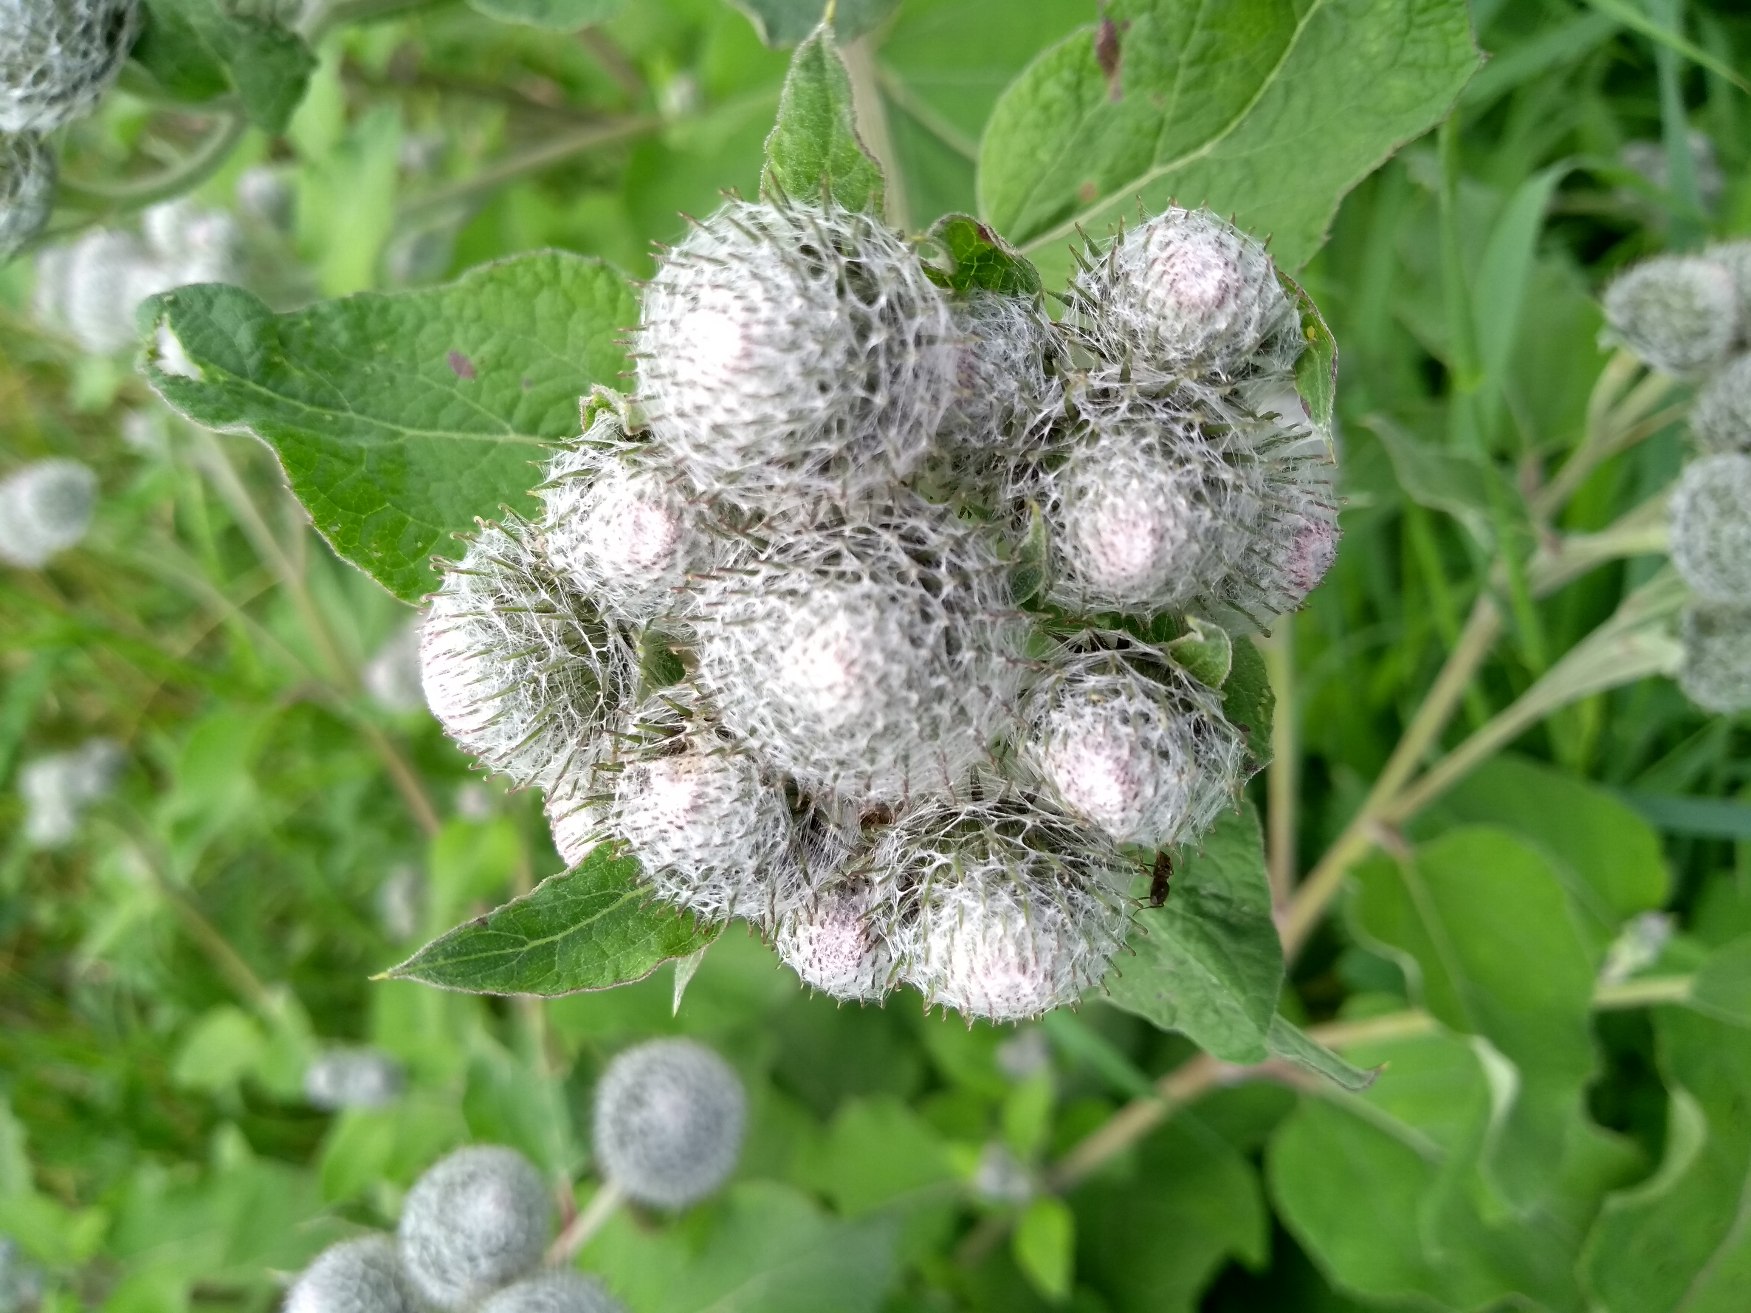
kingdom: Plantae
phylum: Tracheophyta
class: Magnoliopsida
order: Asterales
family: Asteraceae
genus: Arctium
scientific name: Arctium tomentosum
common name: Filtet burre
